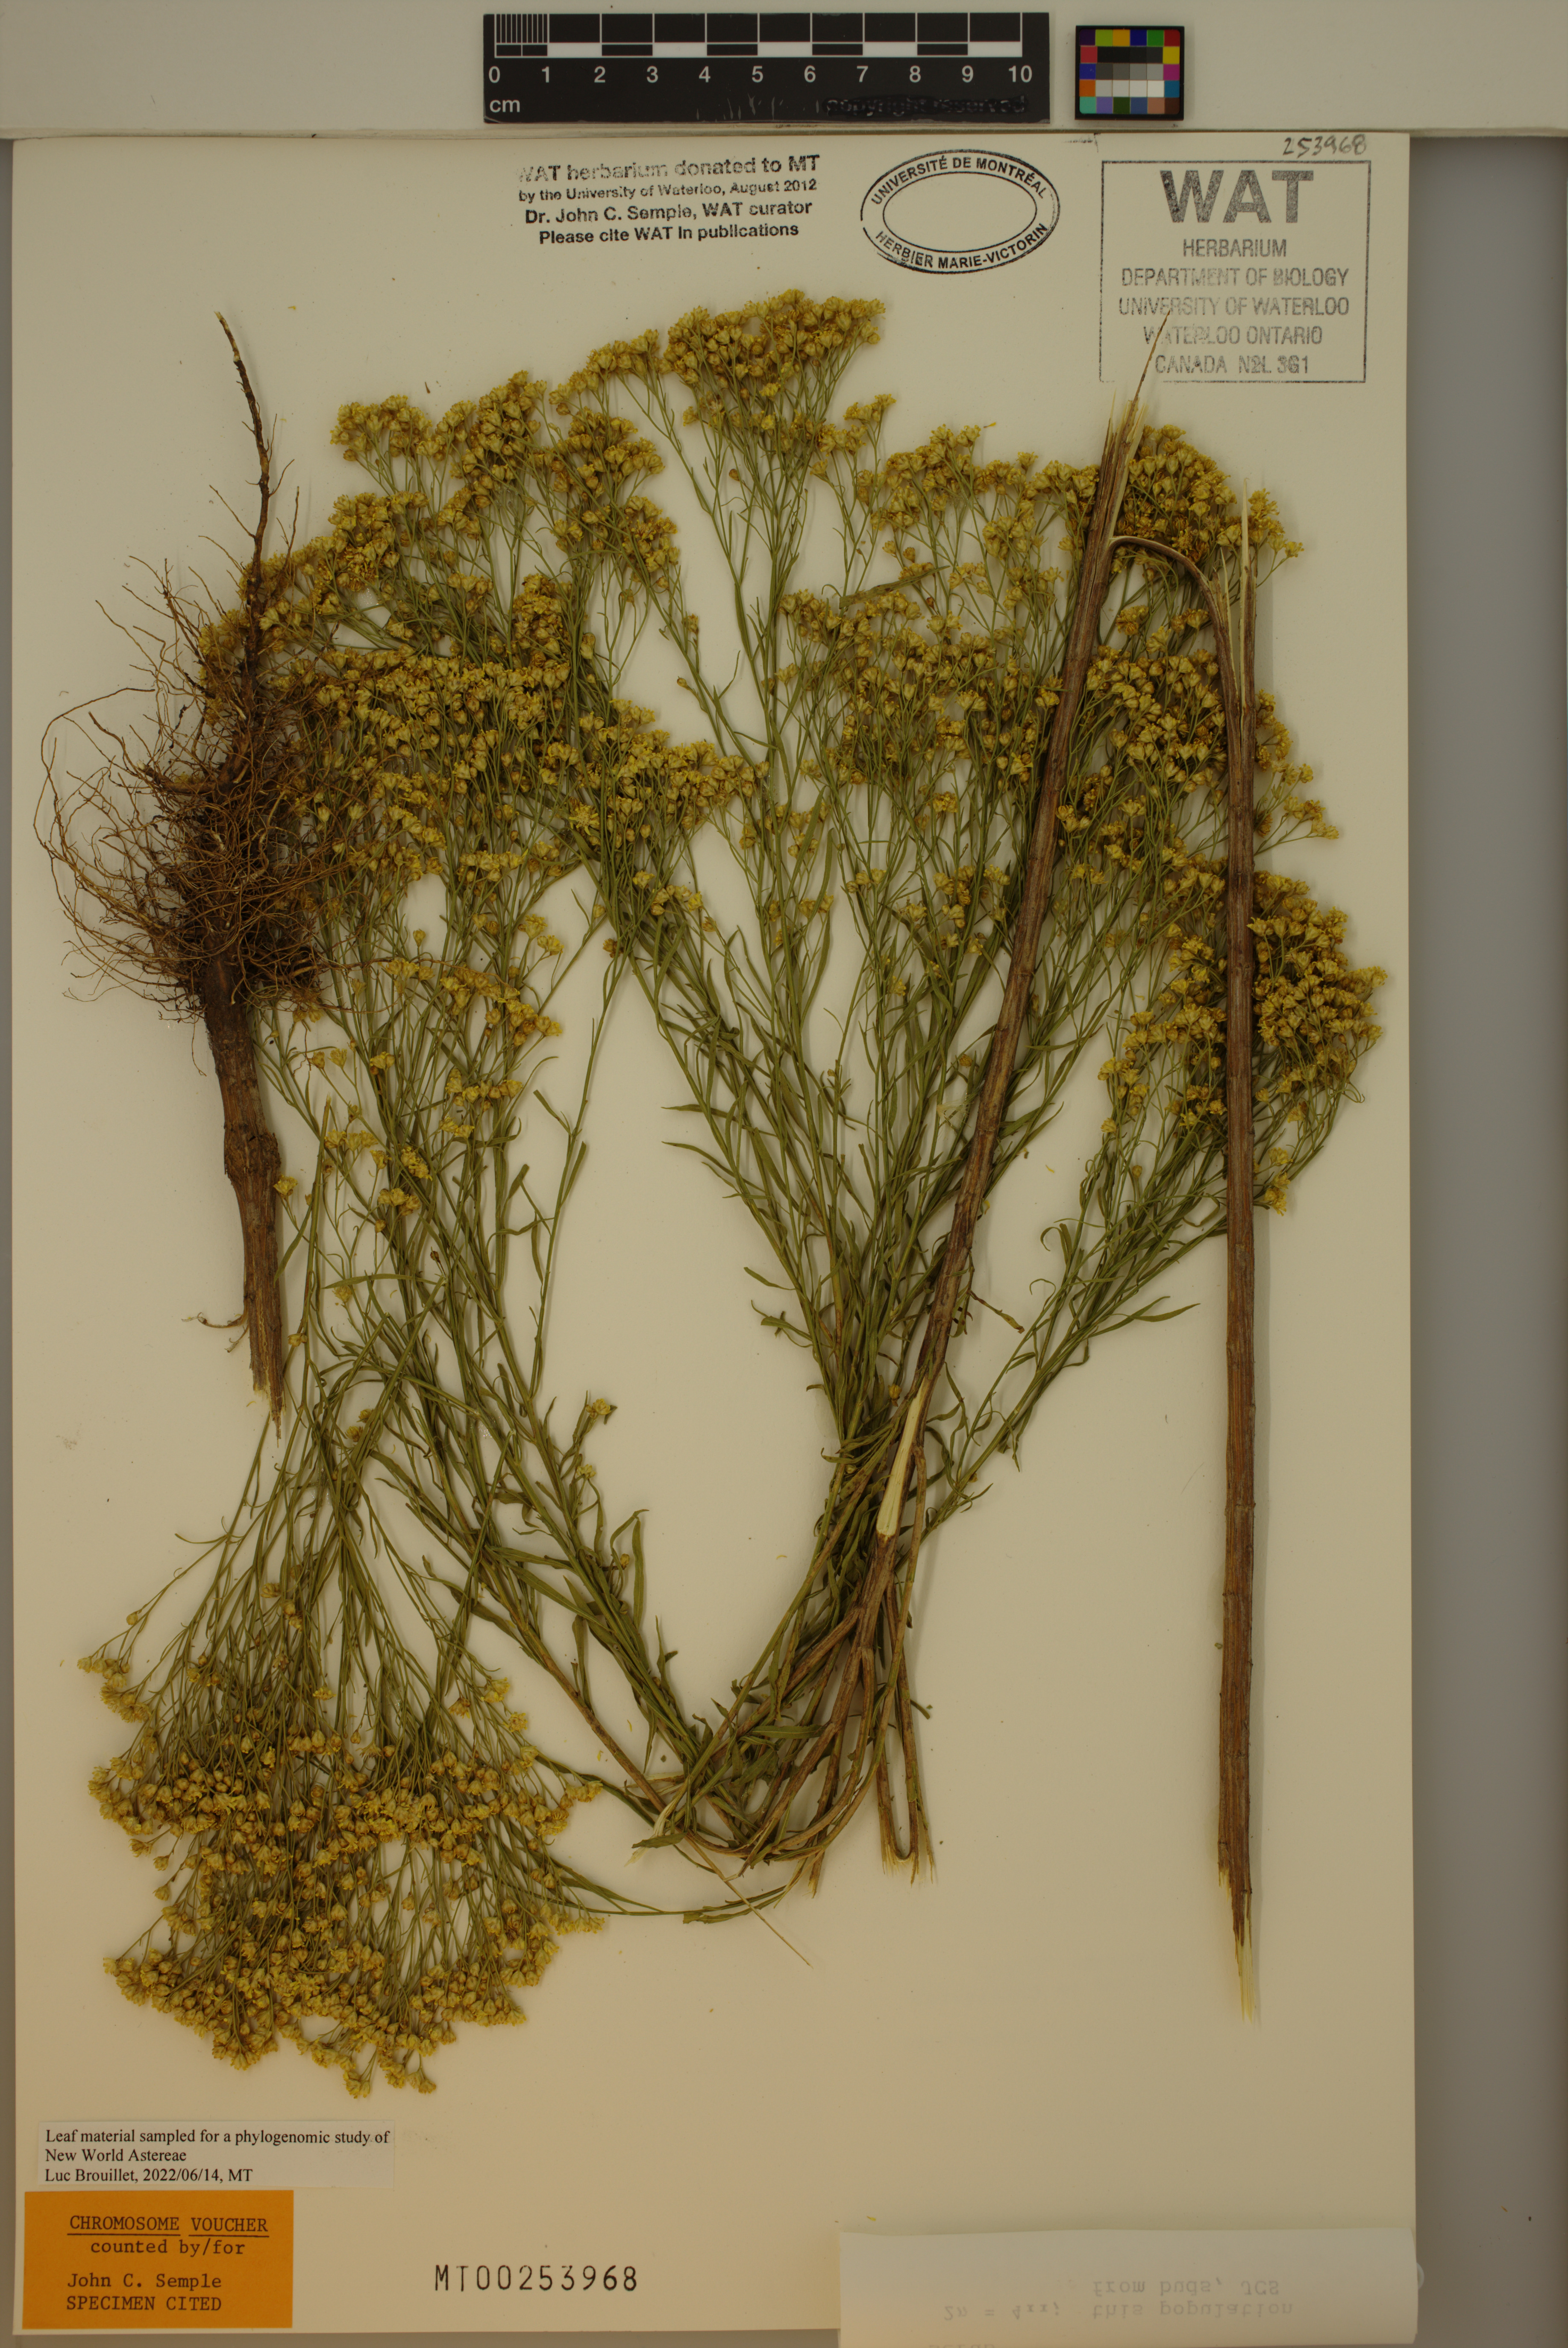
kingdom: Plantae
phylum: Tracheophyta
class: Magnoliopsida
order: Asterales
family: Asteraceae
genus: Amphiachyris
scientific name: Amphiachyris dracunculoides
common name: Broomweed
